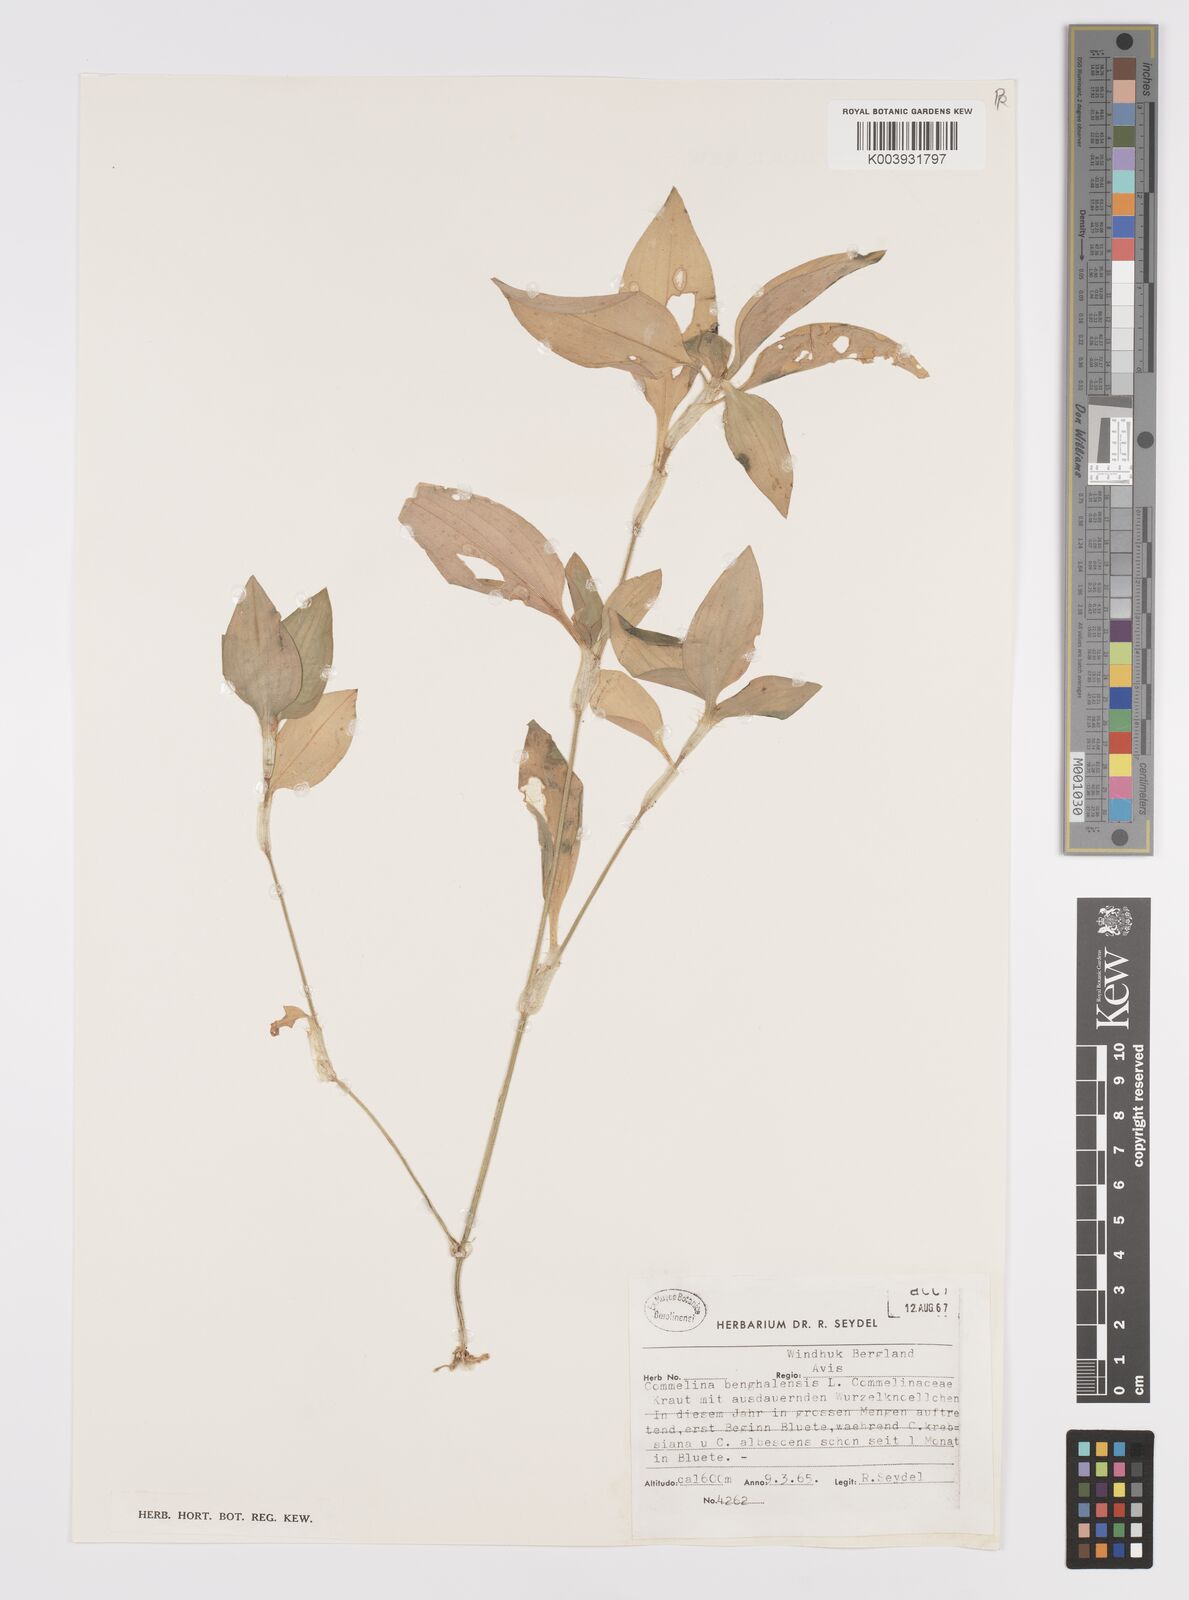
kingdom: Plantae
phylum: Tracheophyta
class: Liliopsida
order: Commelinales
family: Commelinaceae
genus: Commelina
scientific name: Commelina benghalensis
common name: Jio
